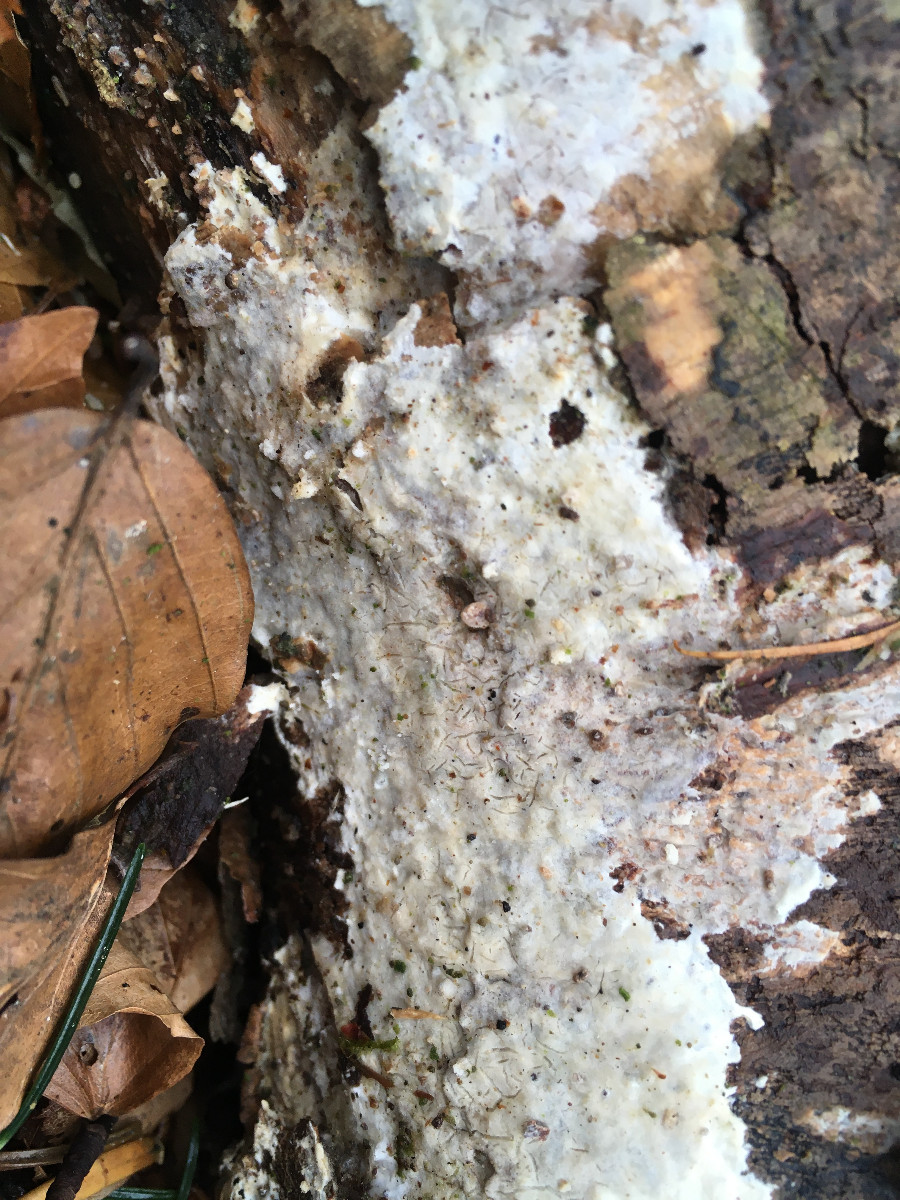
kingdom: Fungi
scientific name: Fungi
